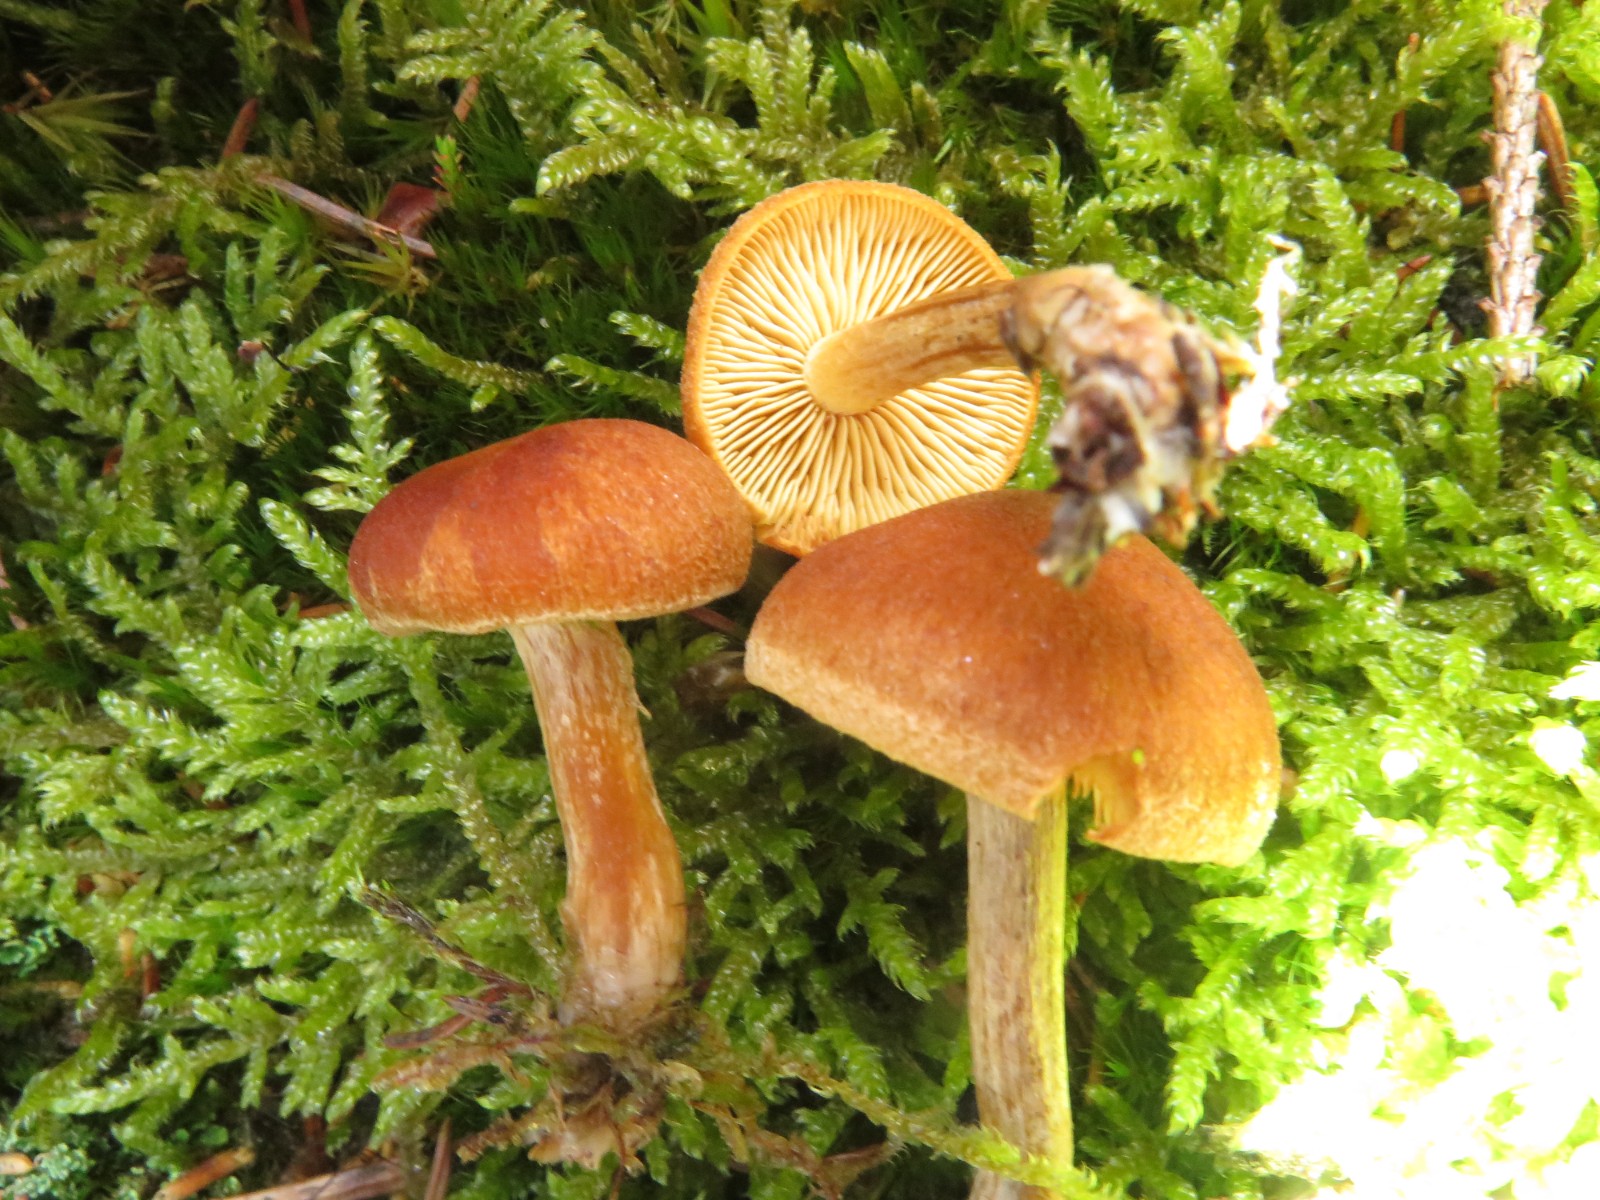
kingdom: Fungi
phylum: Basidiomycota
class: Agaricomycetes
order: Agaricales
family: Hymenogastraceae
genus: Gymnopilus
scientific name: Gymnopilus odini
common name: kul-flammehat
